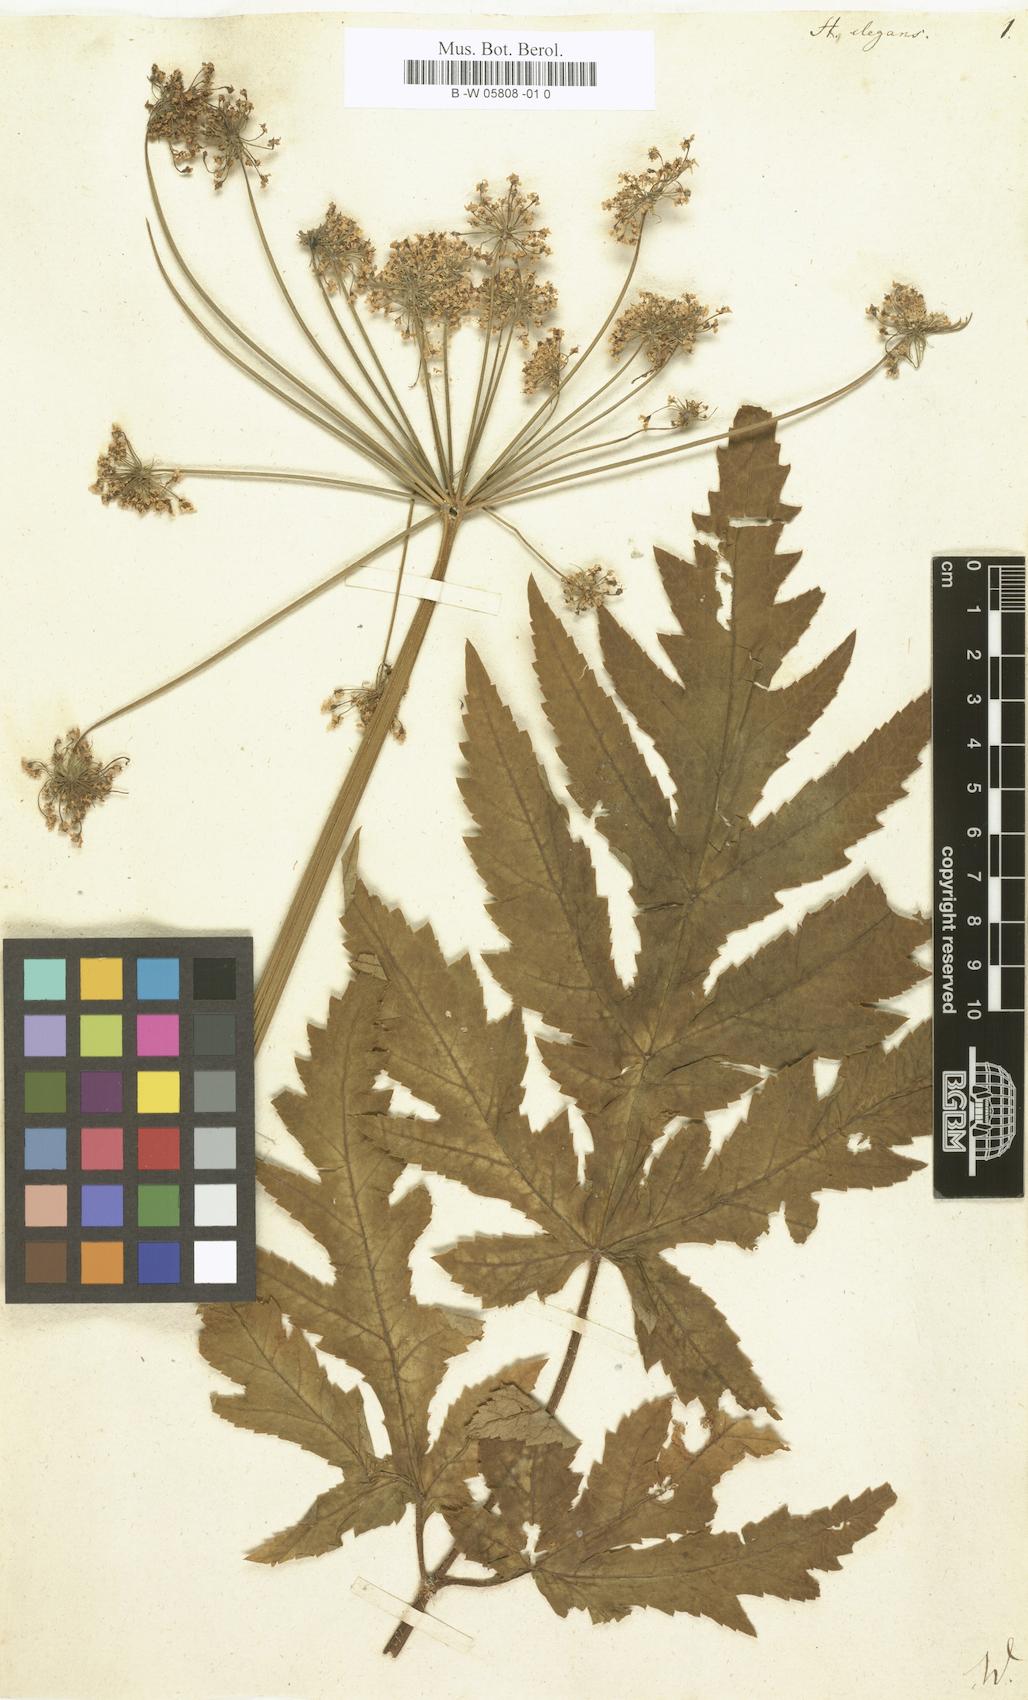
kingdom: Plantae
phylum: Tracheophyta
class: Magnoliopsida
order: Apiales
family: Apiaceae
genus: Heracleum
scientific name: Heracleum sphondylium
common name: Hogweed
